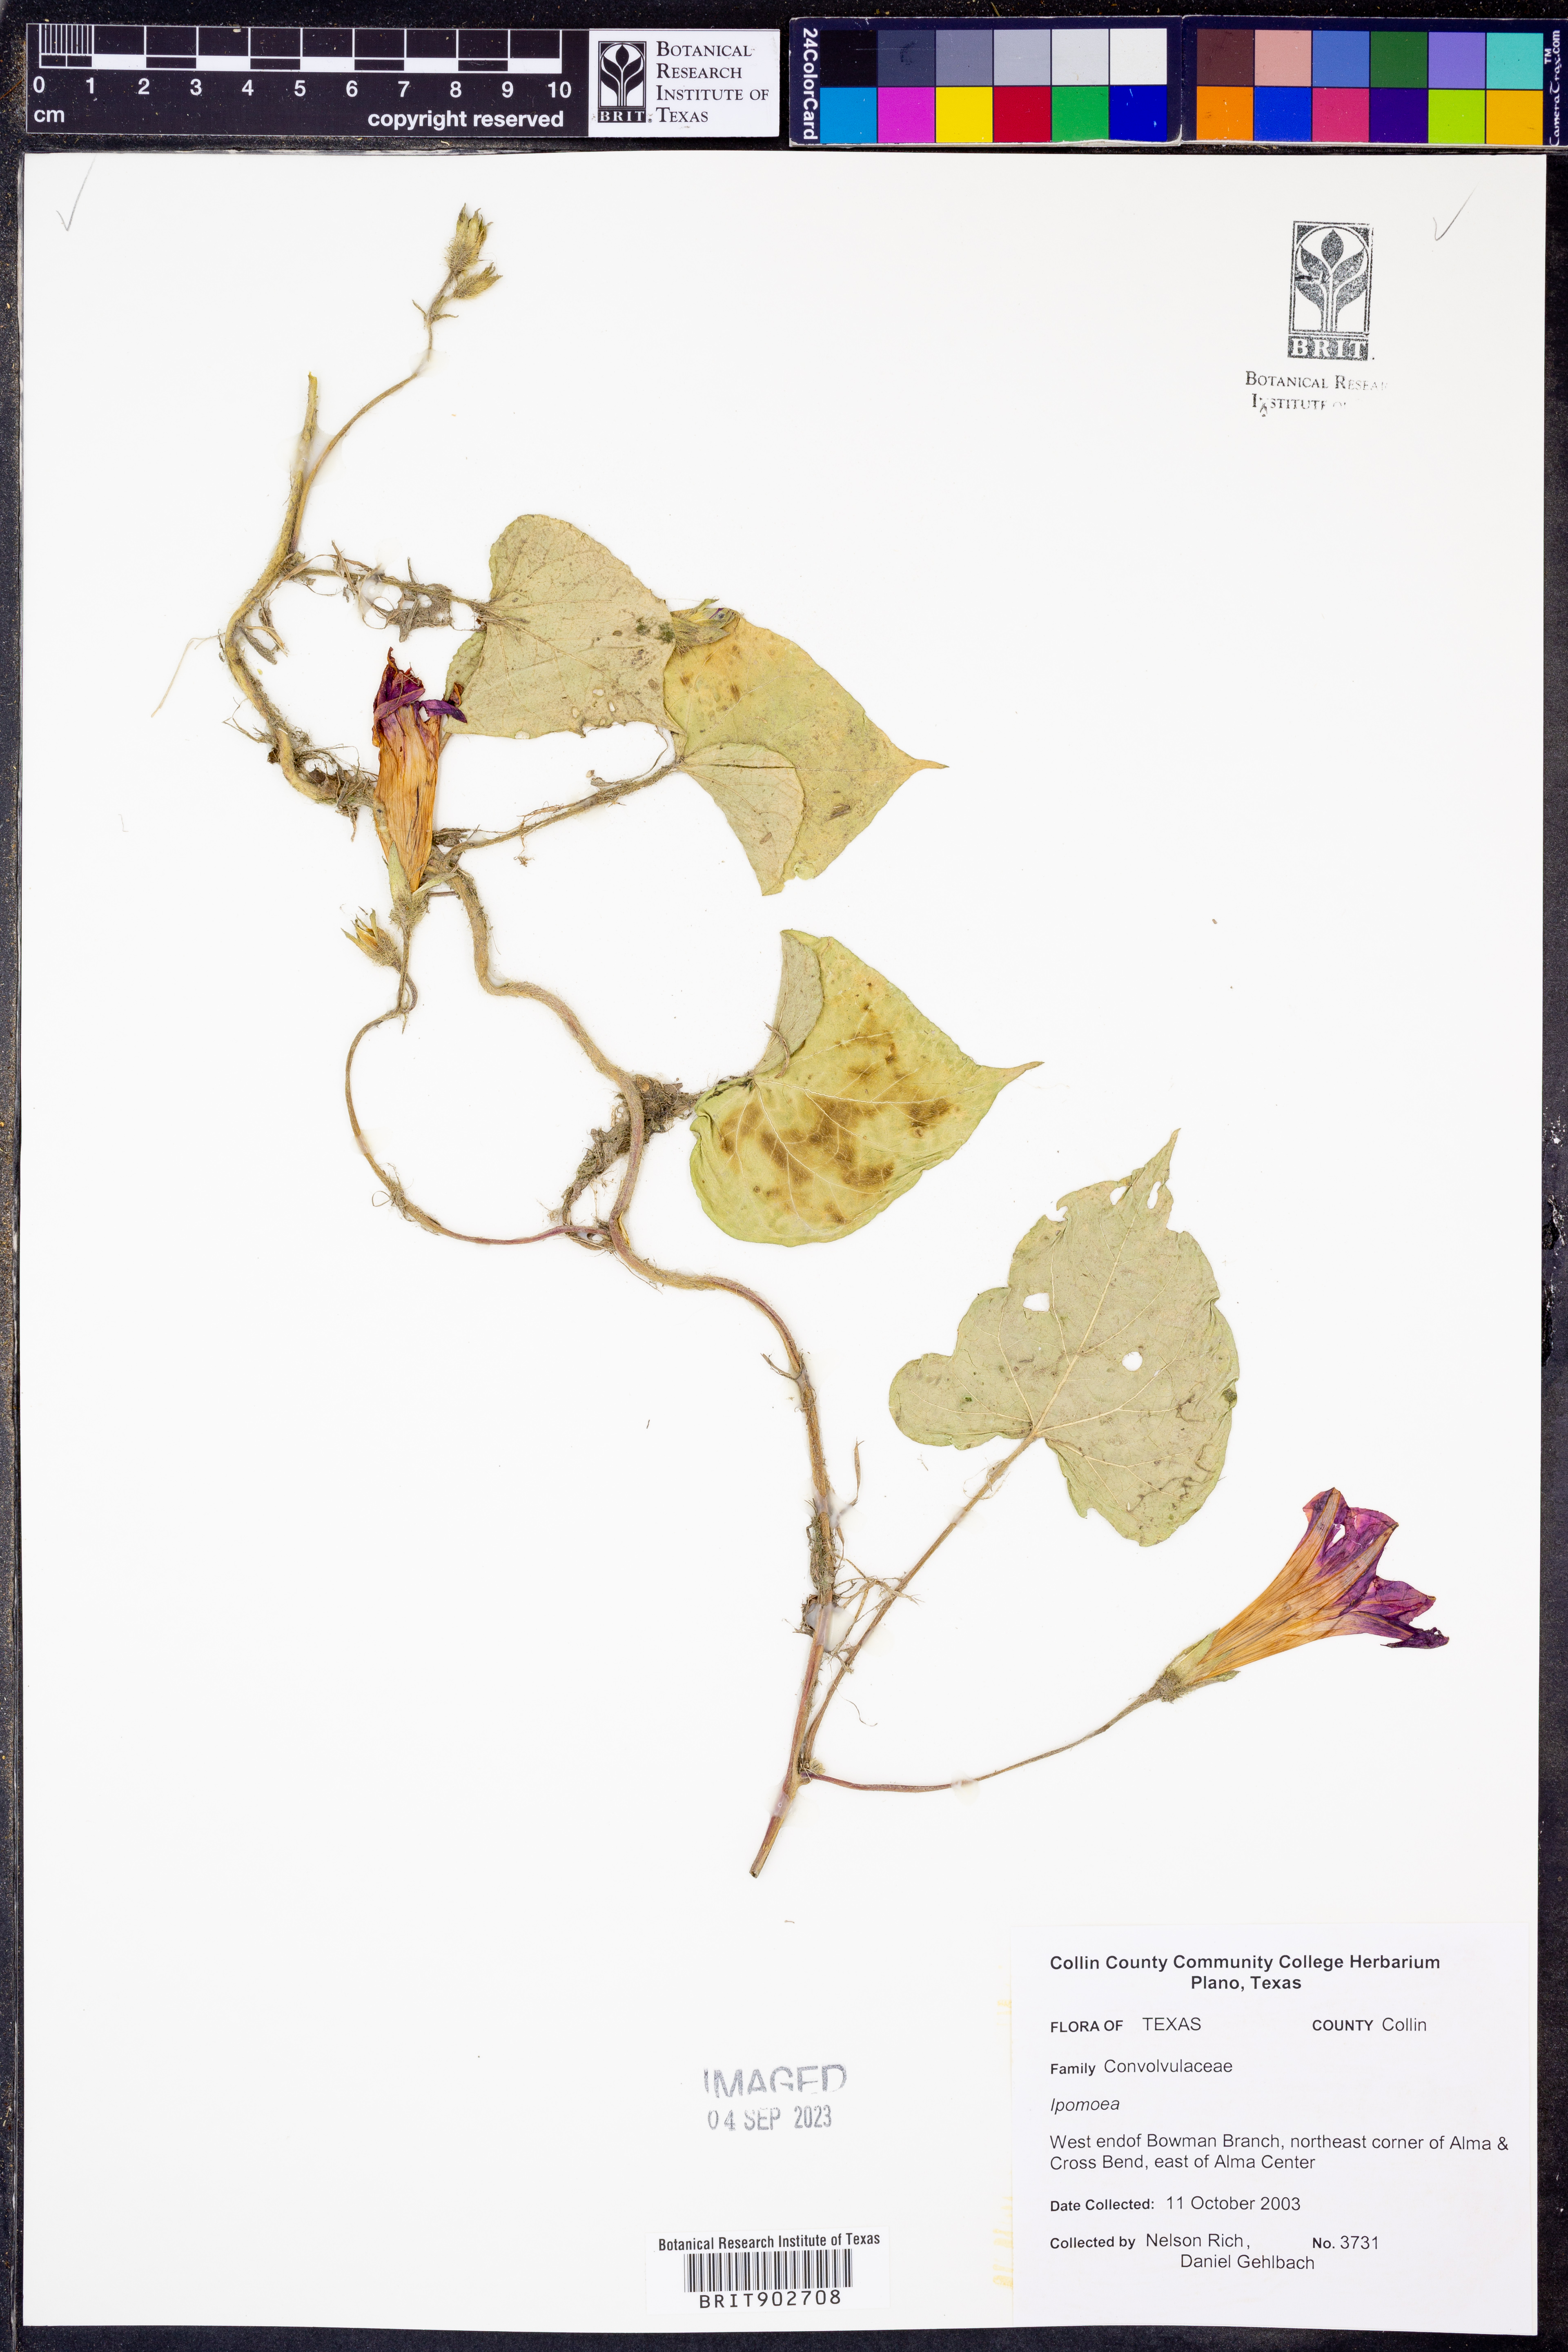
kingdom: Plantae
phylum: Tracheophyta
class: Magnoliopsida
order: Solanales
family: Convolvulaceae
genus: Ipomoea
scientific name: Ipomoea
